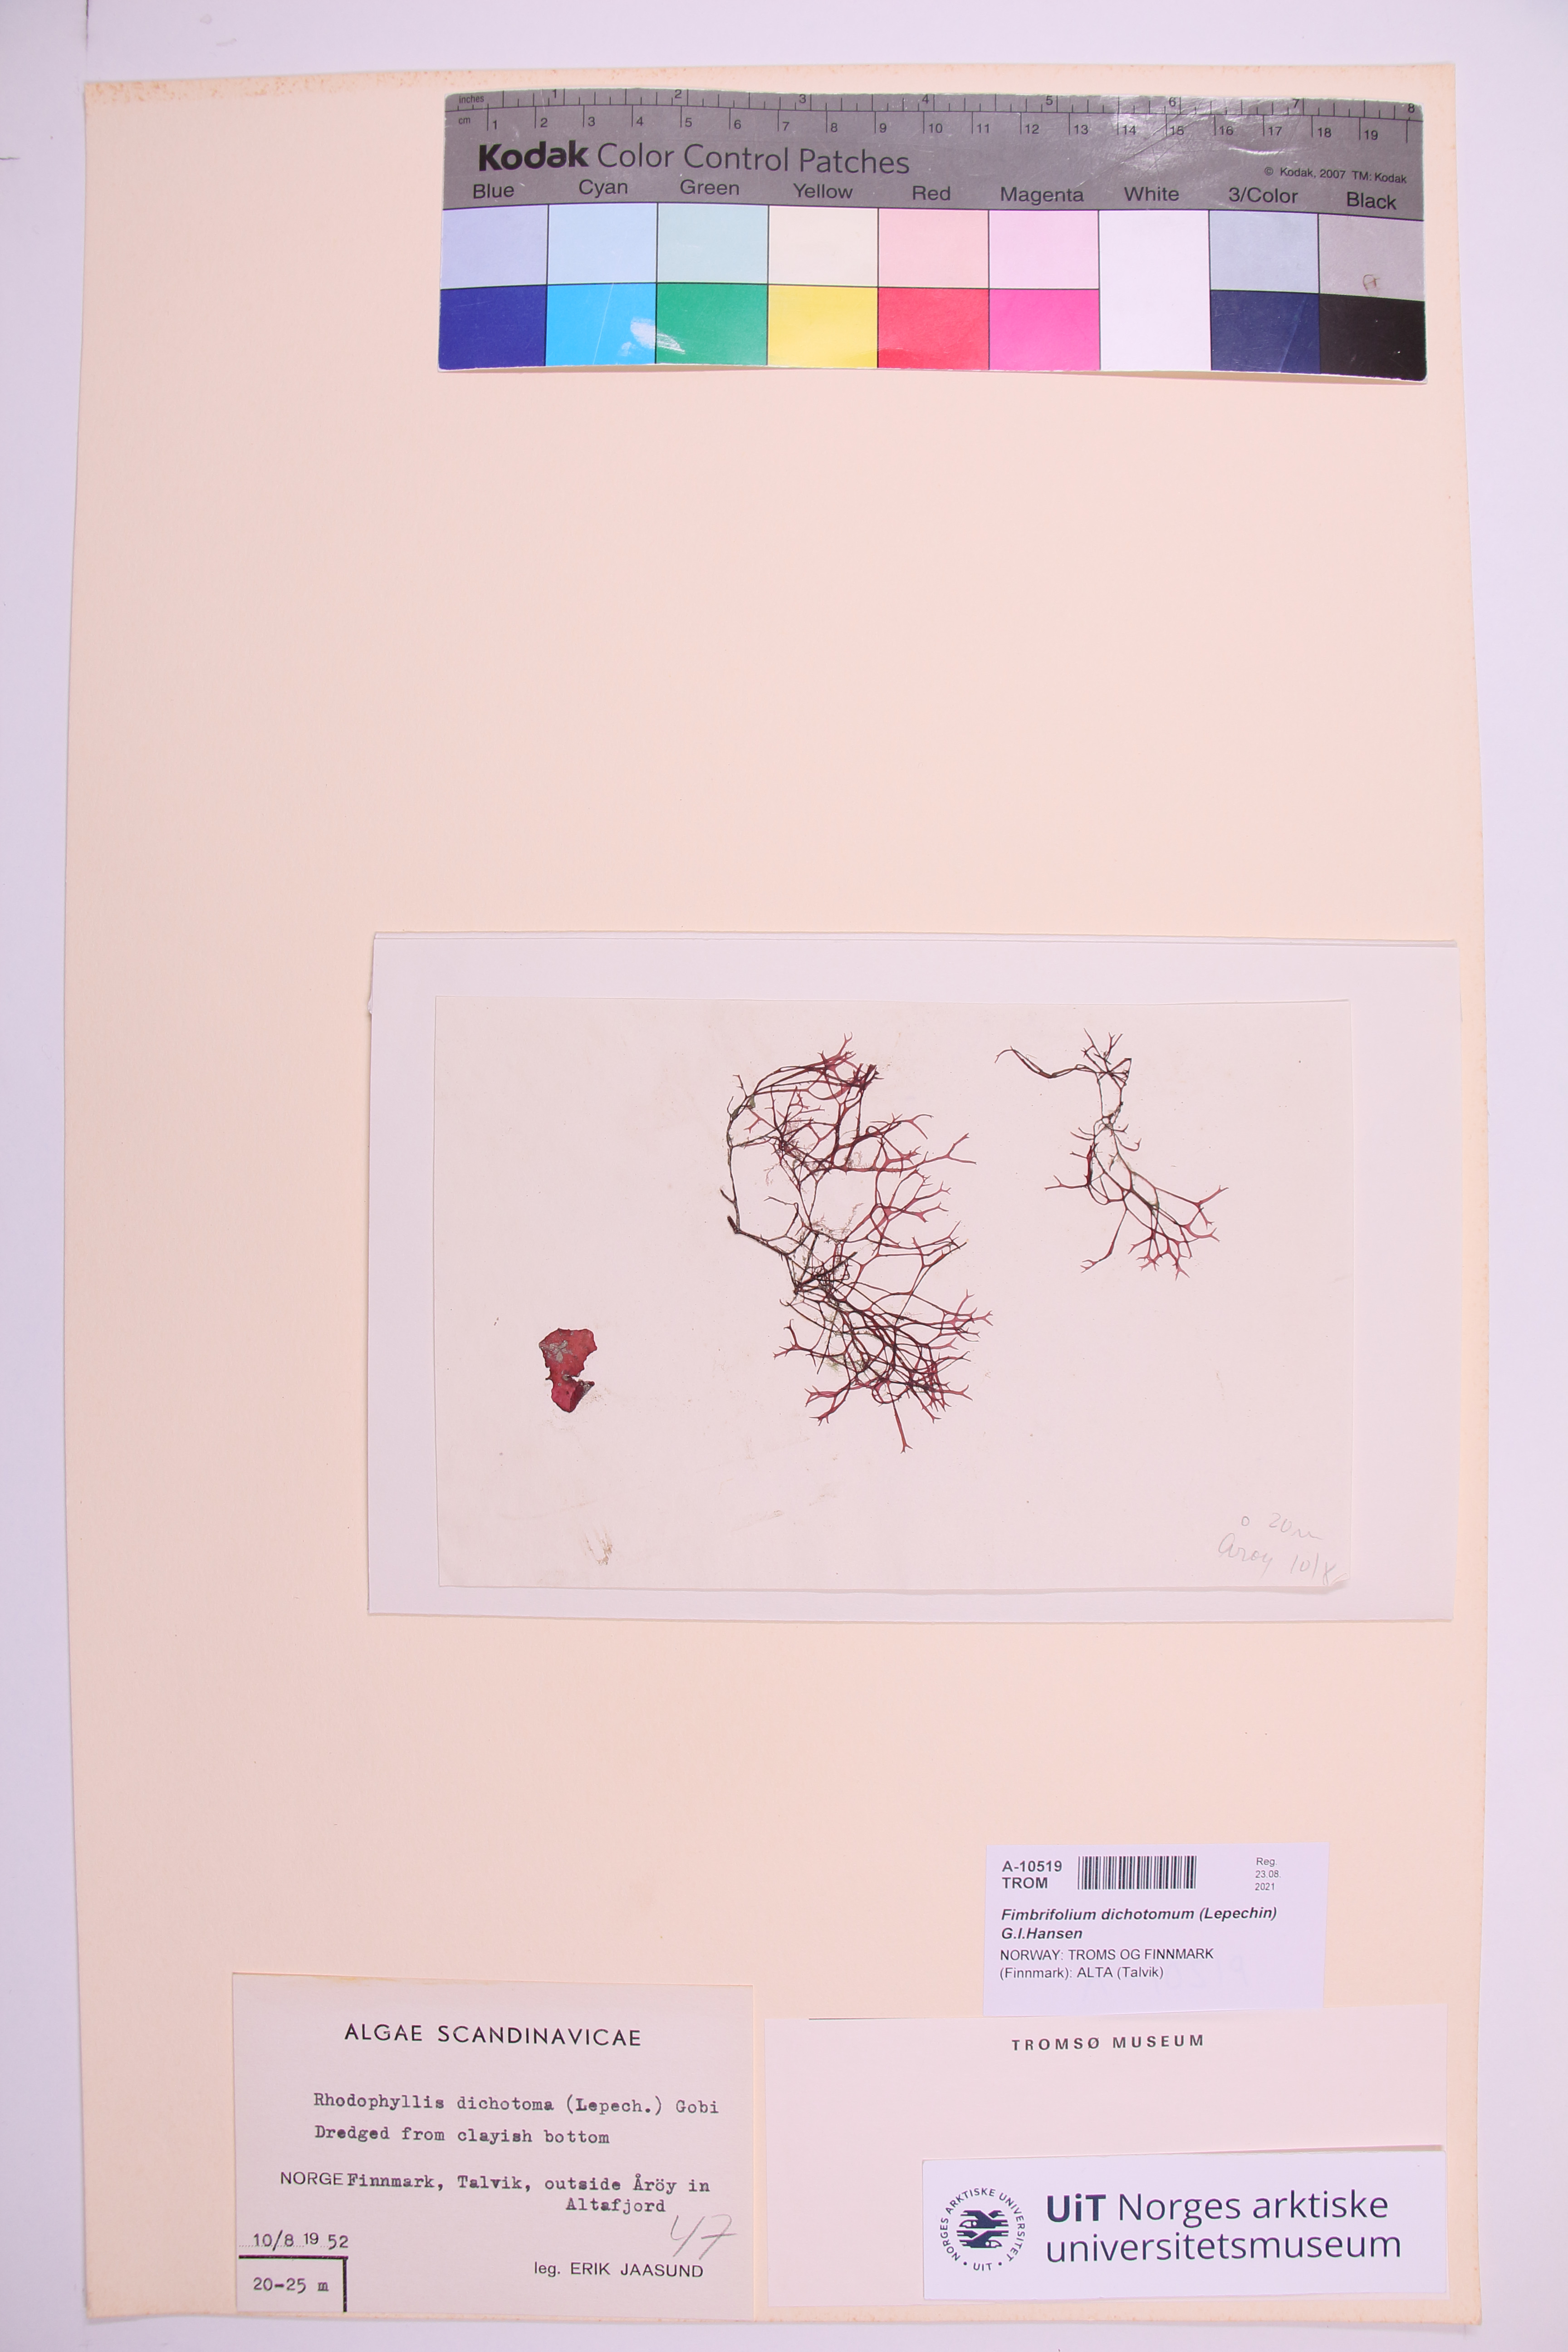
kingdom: Plantae
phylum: Rhodophyta
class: Florideophyceae
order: Gigartinales
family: Cystocloniaceae
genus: Fimbrifolium
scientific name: Fimbrifolium dichotomum
